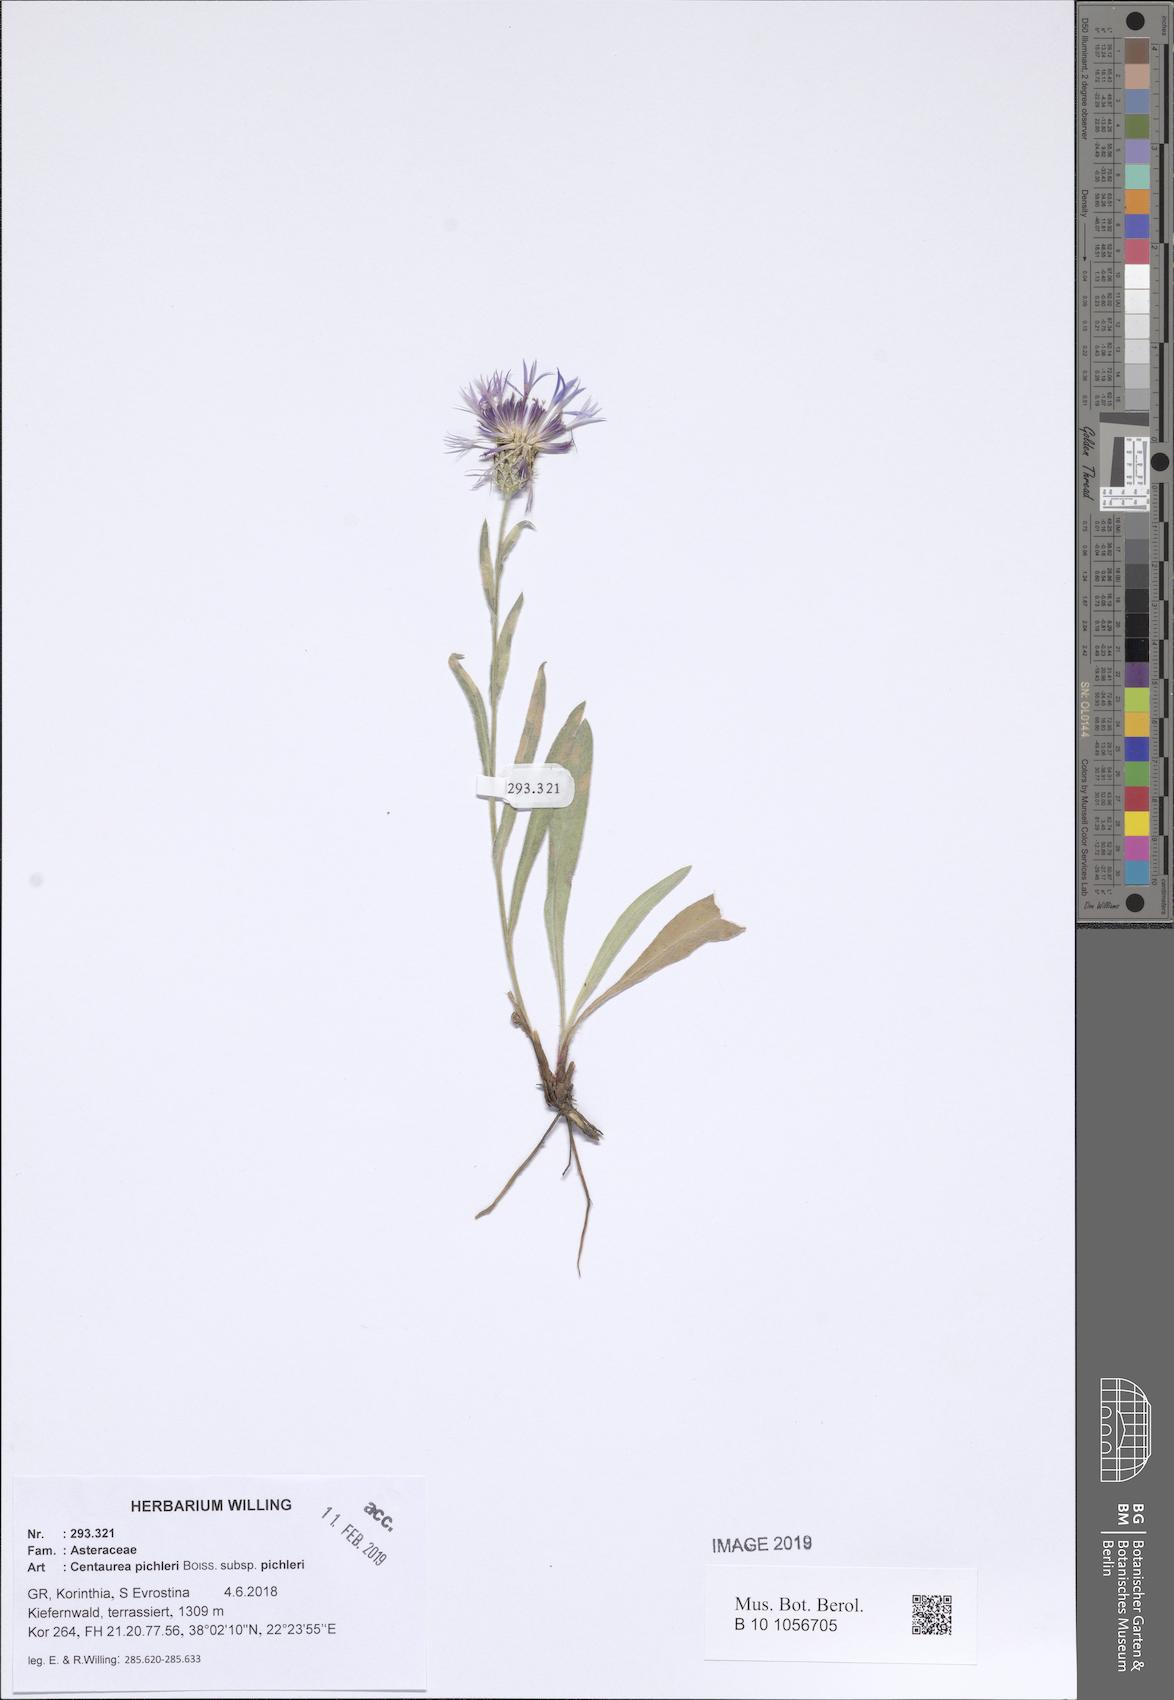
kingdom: Plantae
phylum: Tracheophyta
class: Magnoliopsida
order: Asterales
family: Asteraceae
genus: Centaurea
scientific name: Centaurea pichleri
